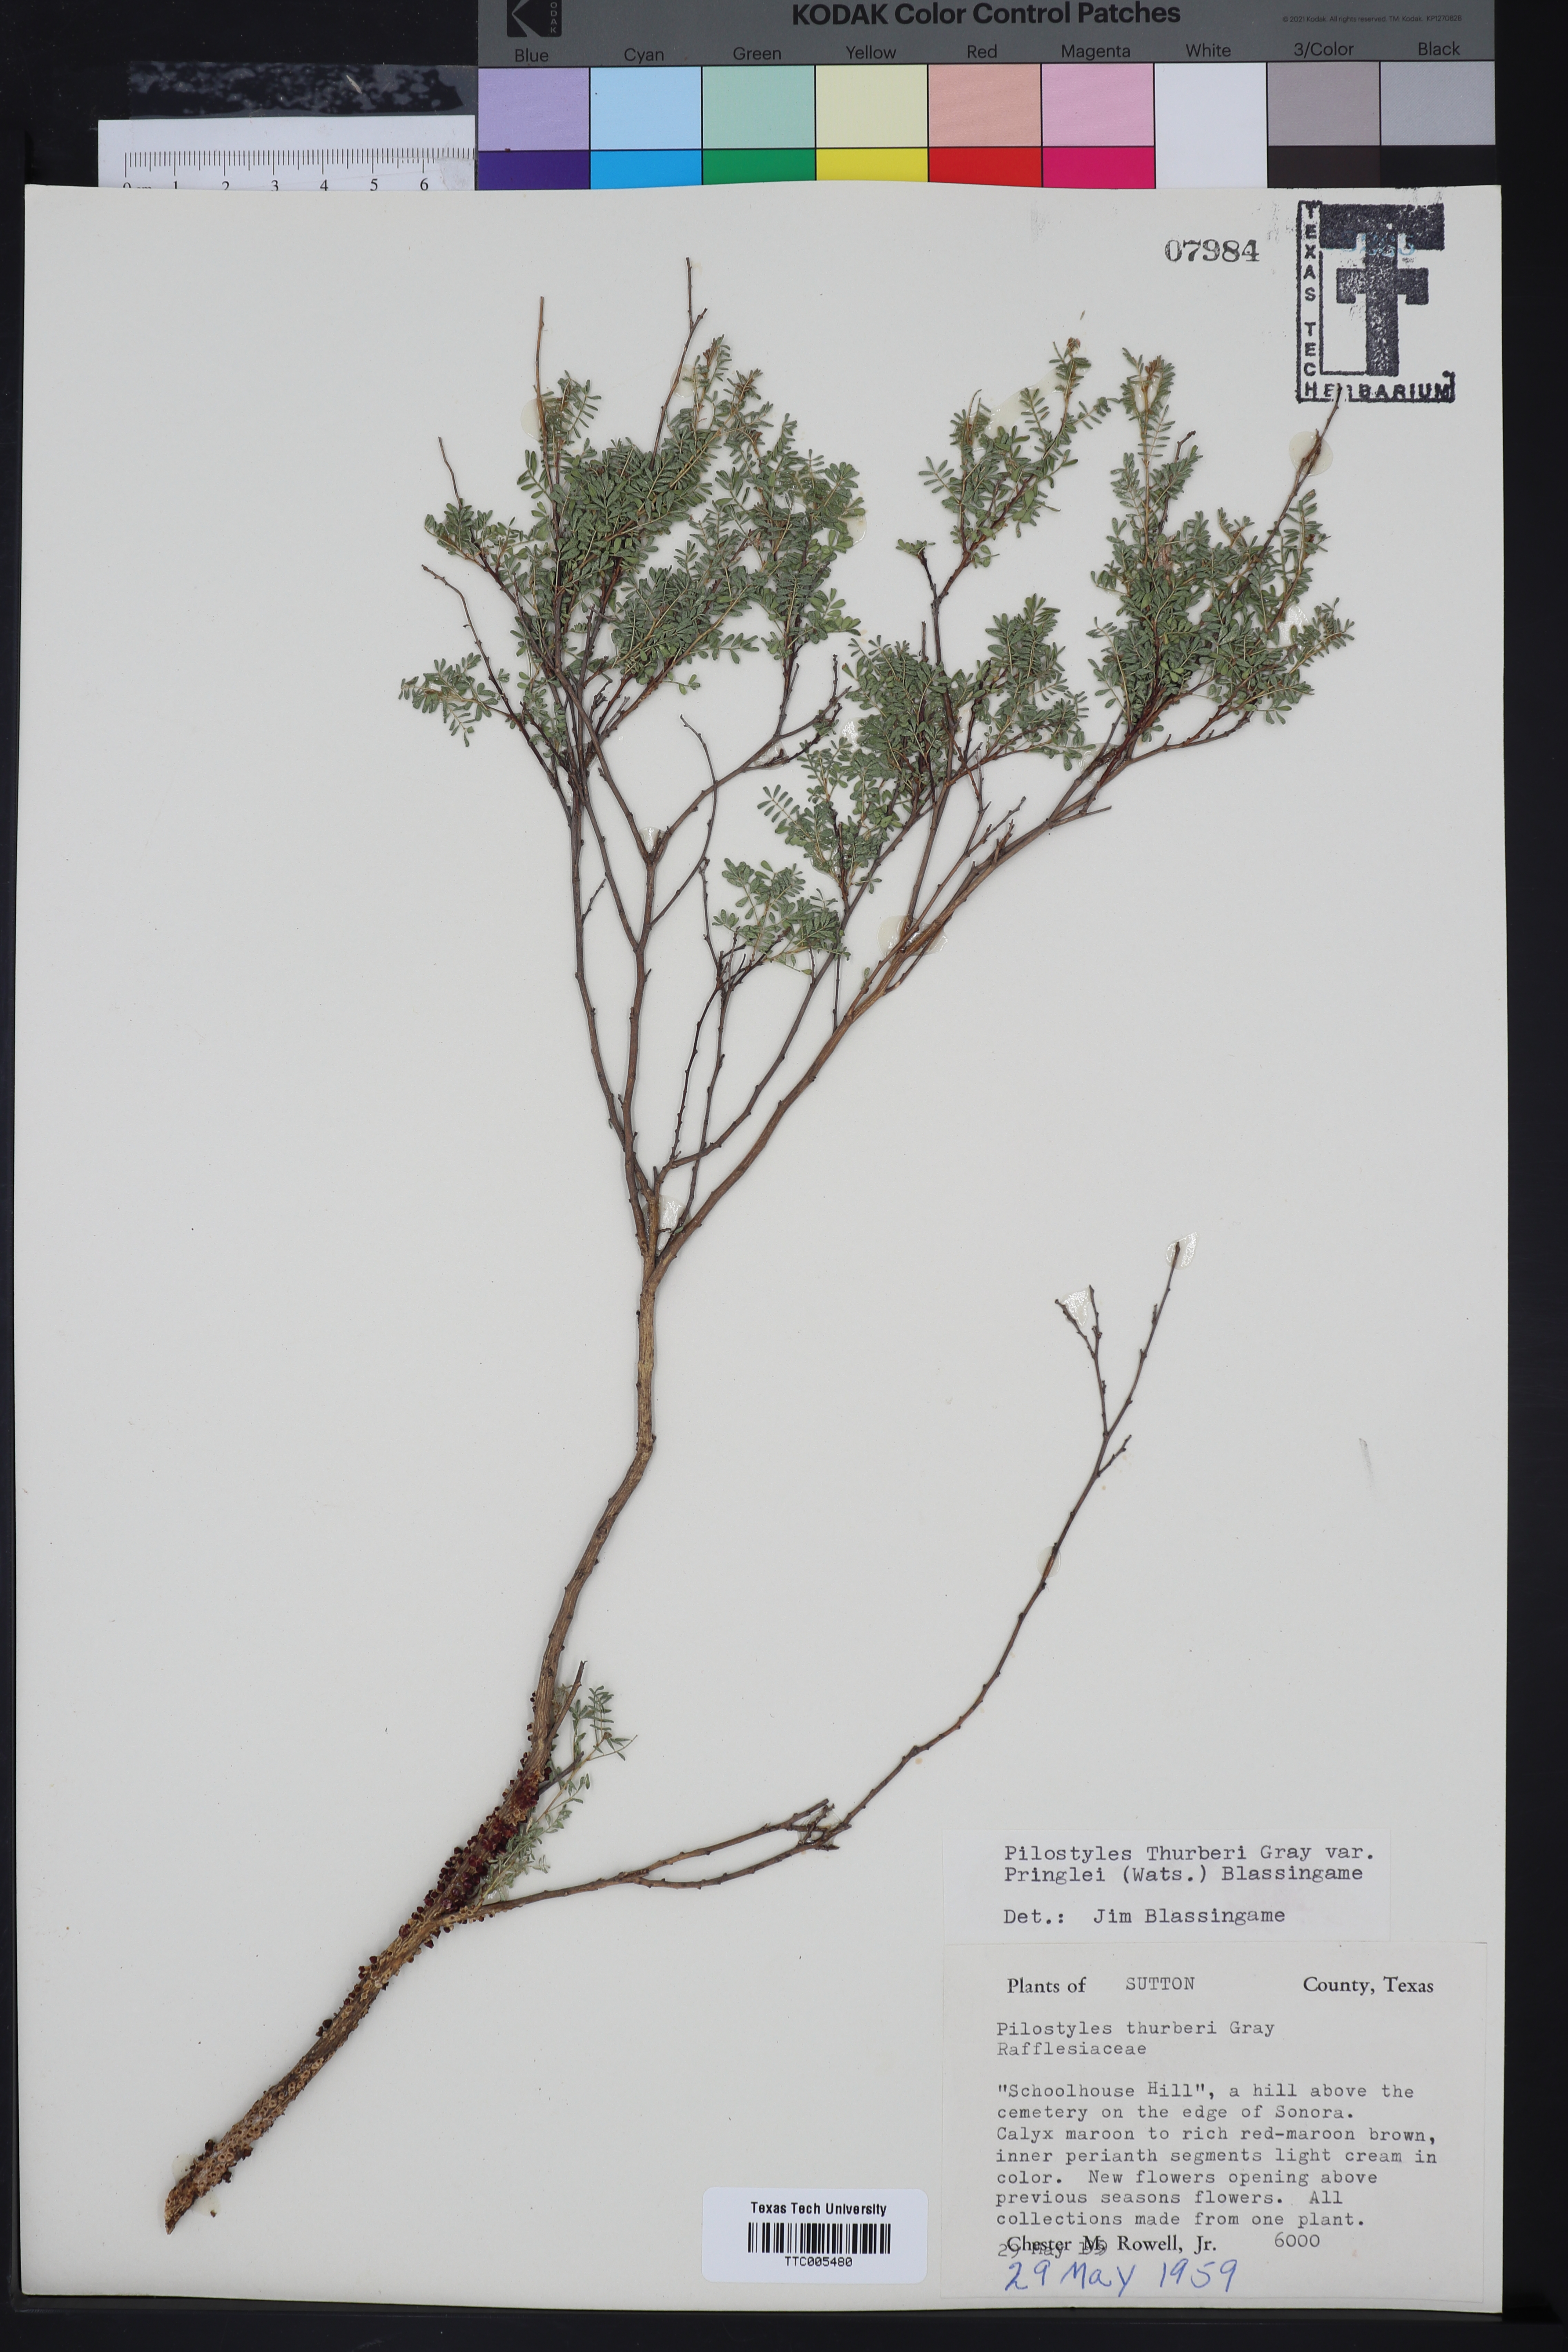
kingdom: Plantae
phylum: Tracheophyta
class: Magnoliopsida
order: Cucurbitales
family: Apodanthaceae
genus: Pilostyles
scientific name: Pilostyles thurberi
